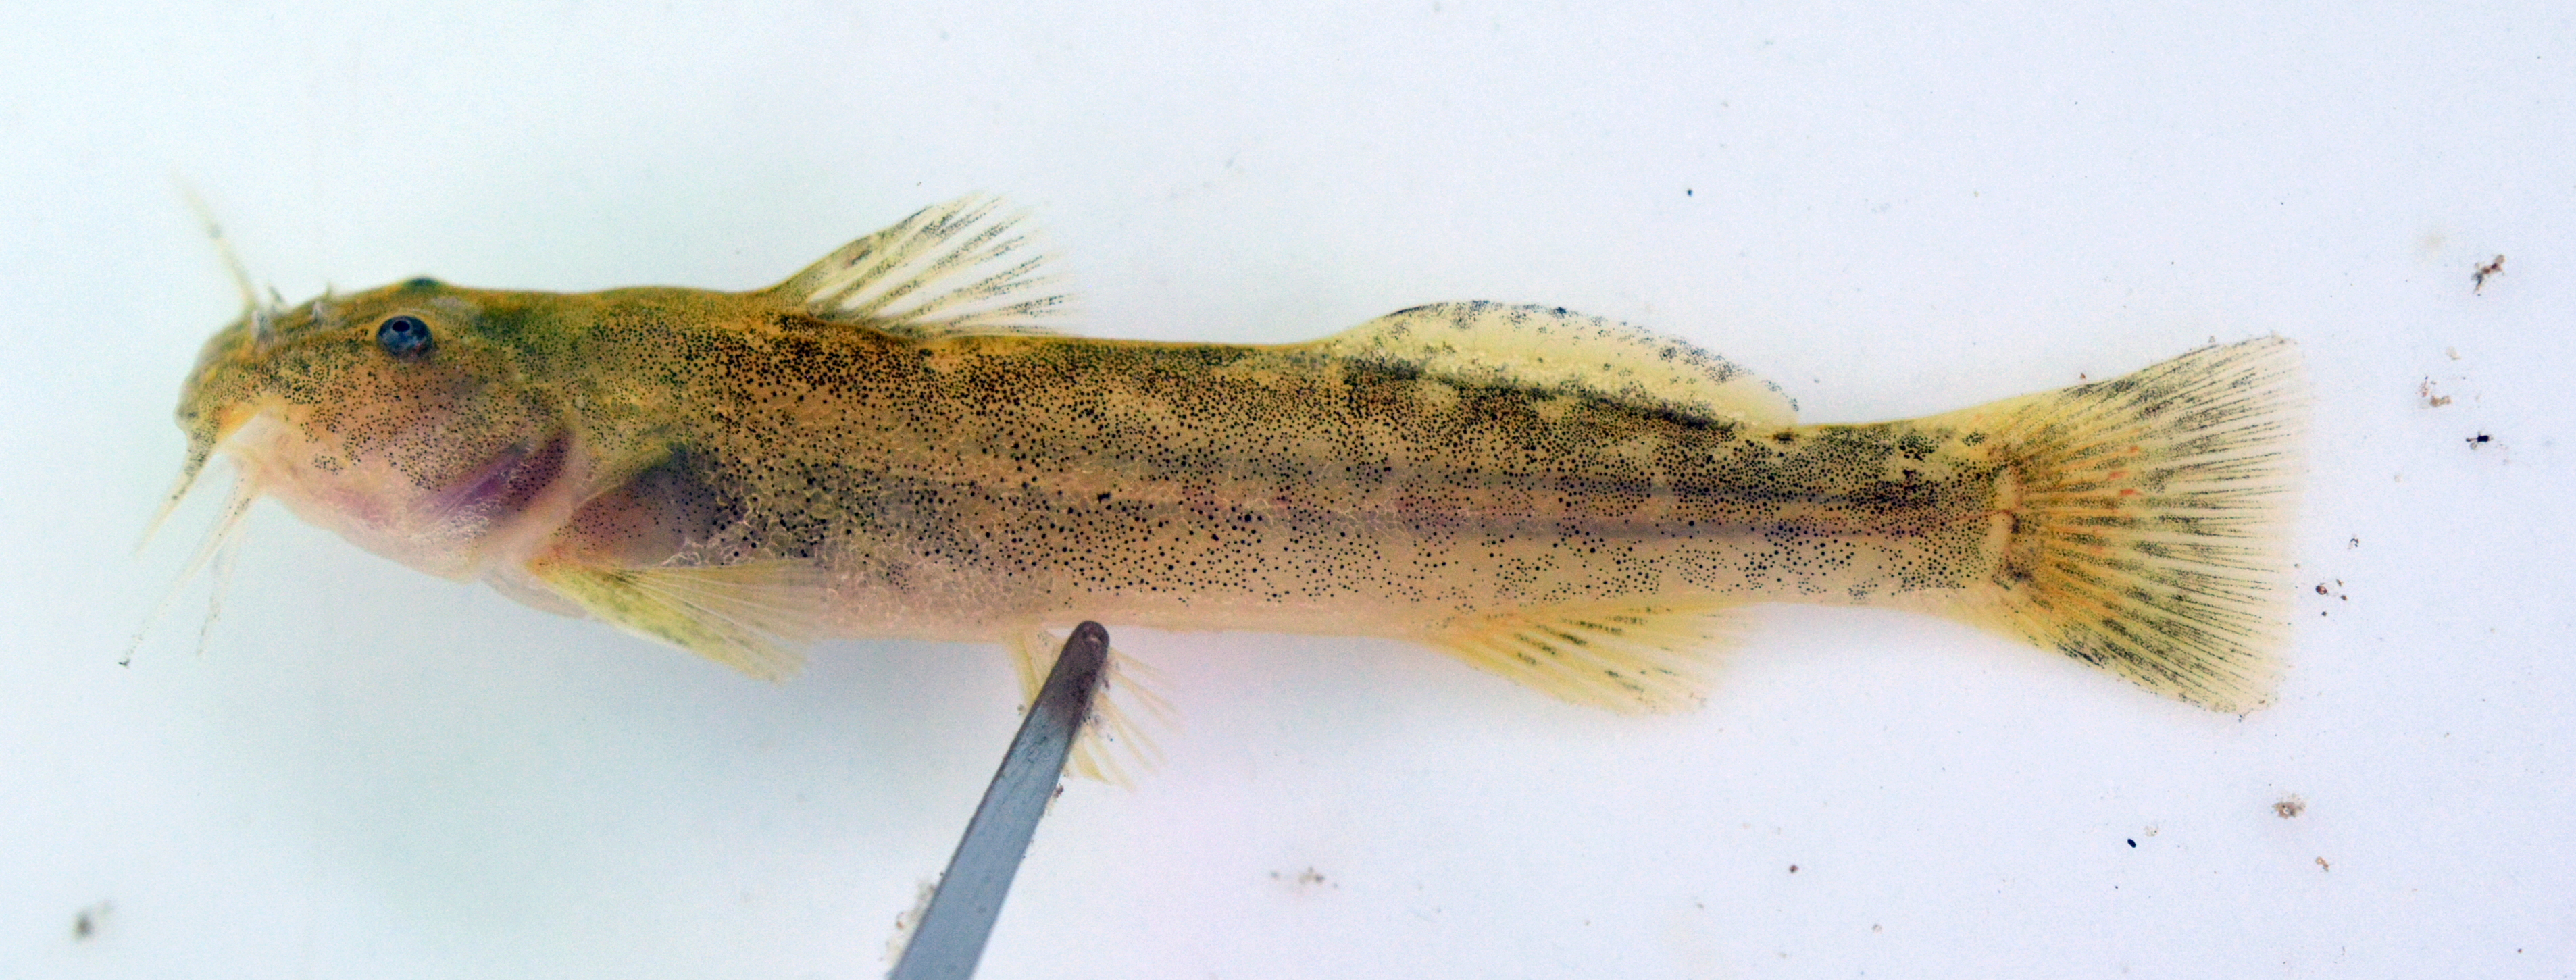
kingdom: Animalia
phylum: Chordata
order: Siluriformes
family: Amphiliidae
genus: Zaireichthys
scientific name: Zaireichthys
